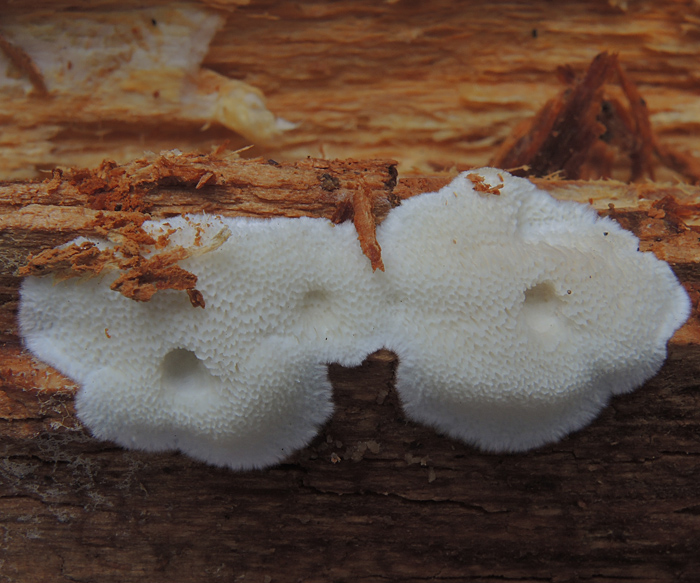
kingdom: Fungi
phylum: Basidiomycota
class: Agaricomycetes
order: Polyporales
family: Gelatoporiaceae
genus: Cinereomyces
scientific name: Cinereomyces lindbladii
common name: almindelig gråporesvamp
